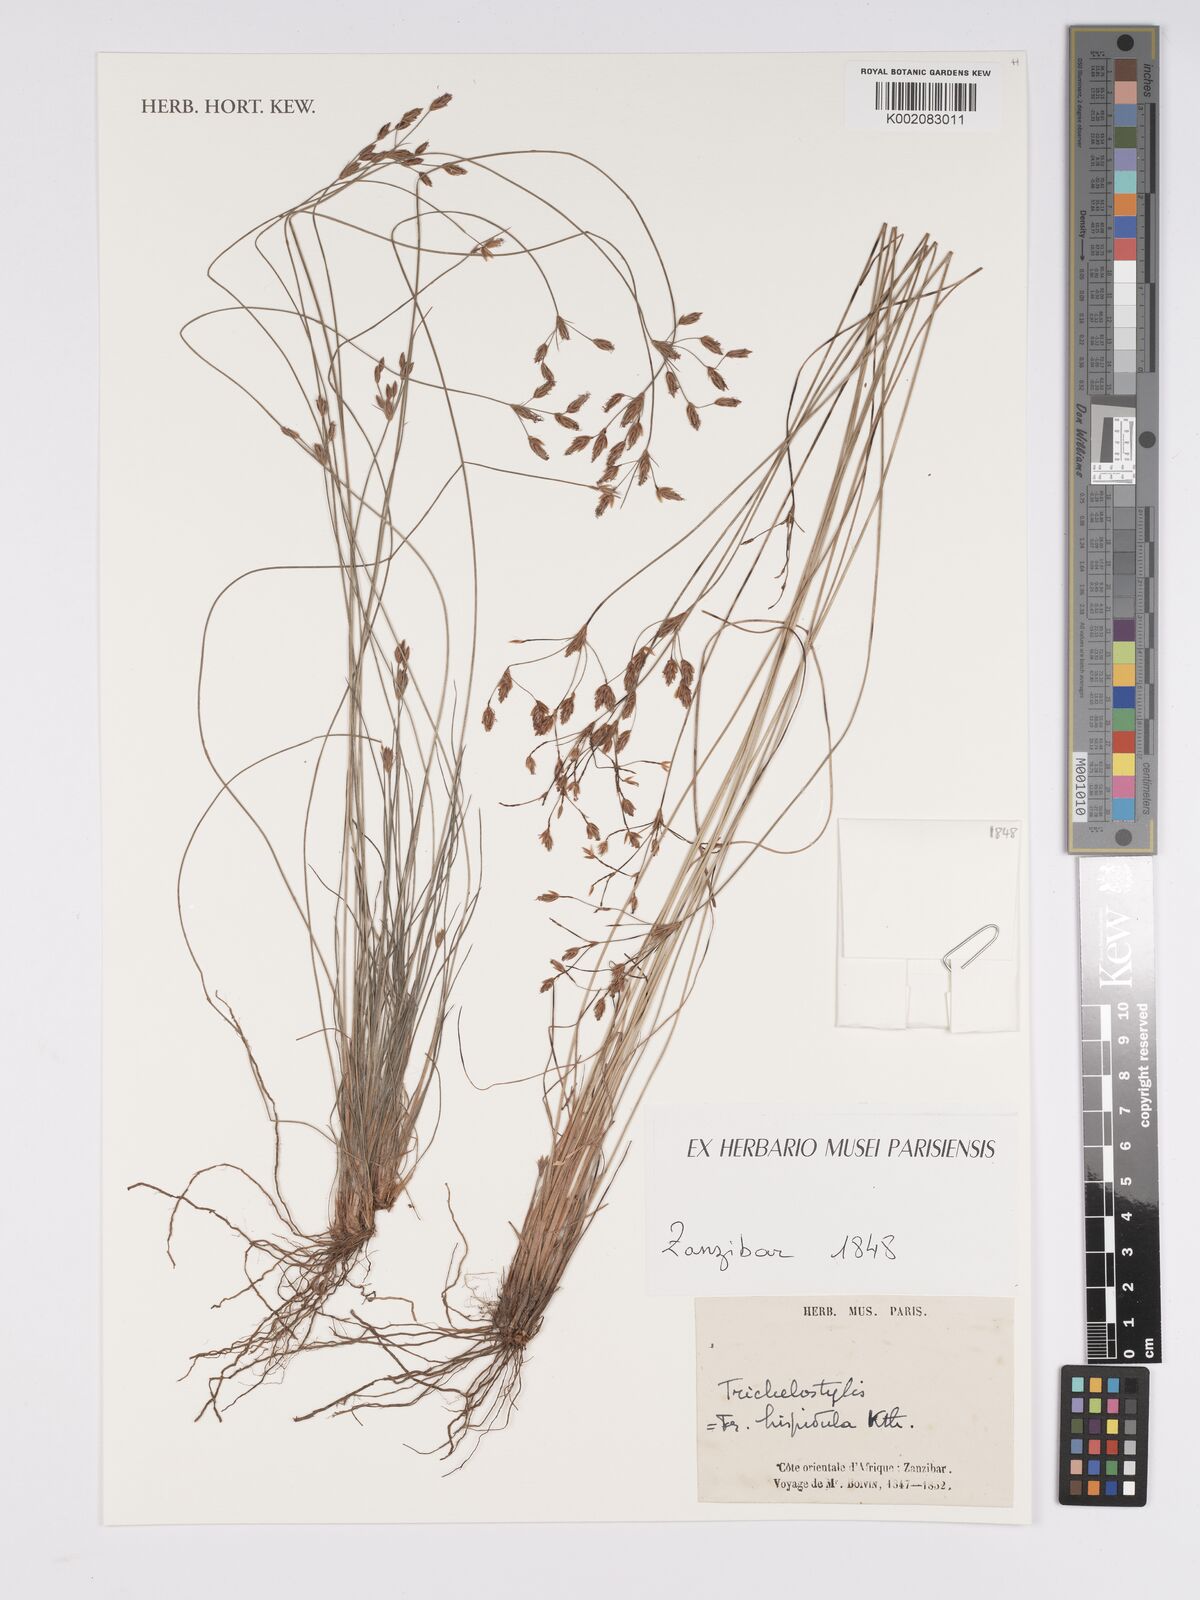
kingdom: Plantae
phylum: Tracheophyta
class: Liliopsida
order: Poales
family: Cyperaceae
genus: Bulbostylis
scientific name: Bulbostylis hispidula
